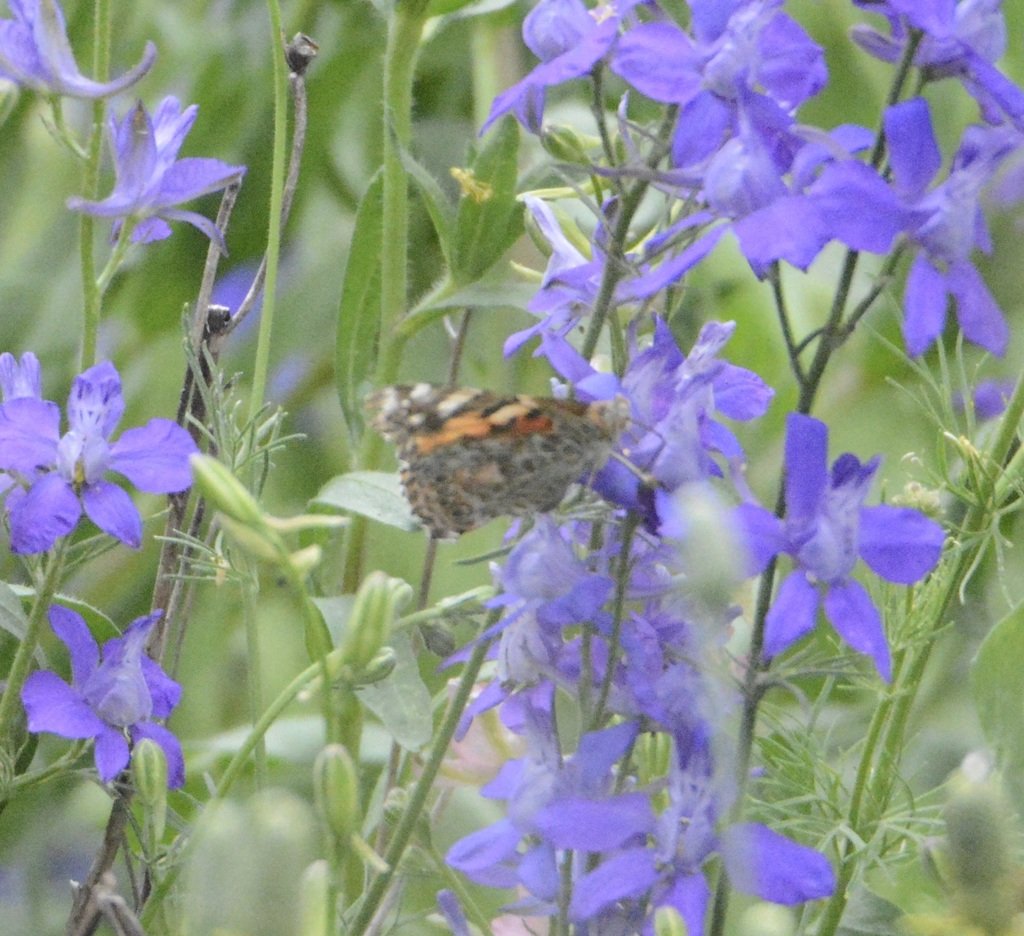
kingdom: Animalia
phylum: Arthropoda
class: Insecta
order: Lepidoptera
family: Nymphalidae
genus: Vanessa
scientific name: Vanessa cardui
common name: Painted Lady
